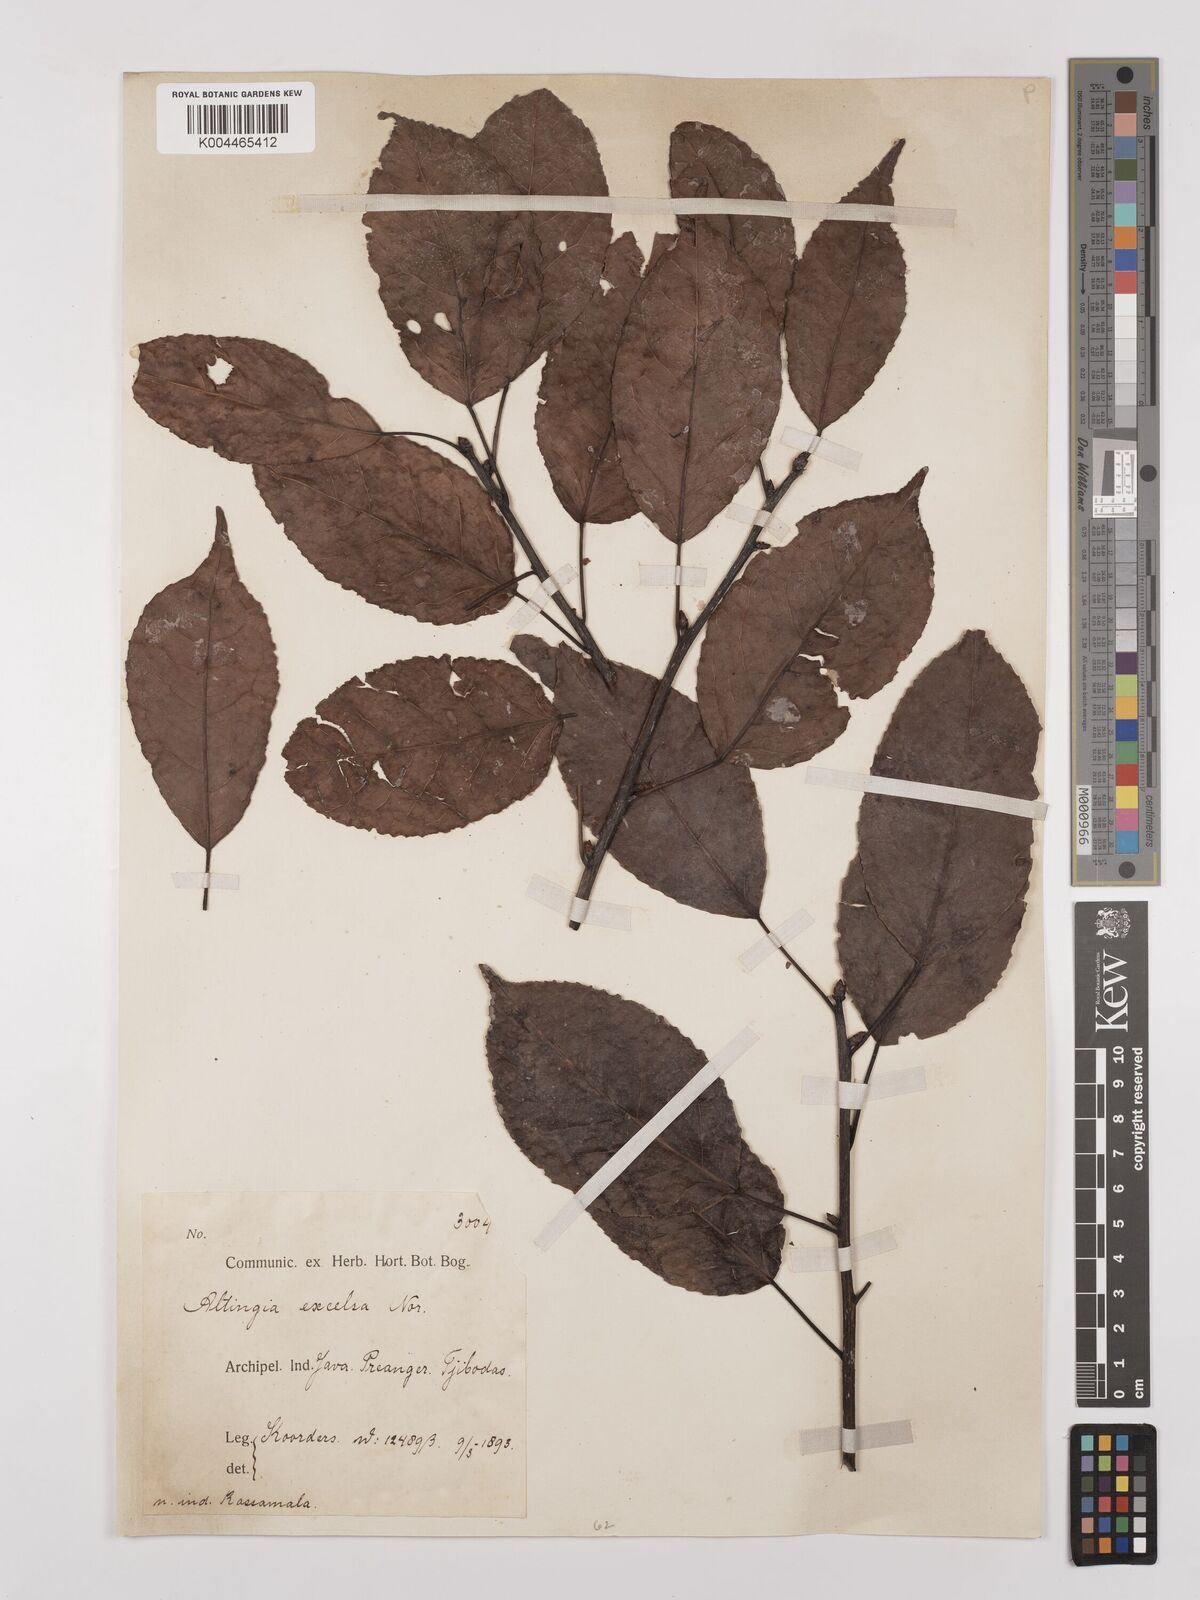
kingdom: Plantae
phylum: Tracheophyta
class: Magnoliopsida
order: Saxifragales
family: Altingiaceae
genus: Liquidambar
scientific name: Liquidambar excelsa
